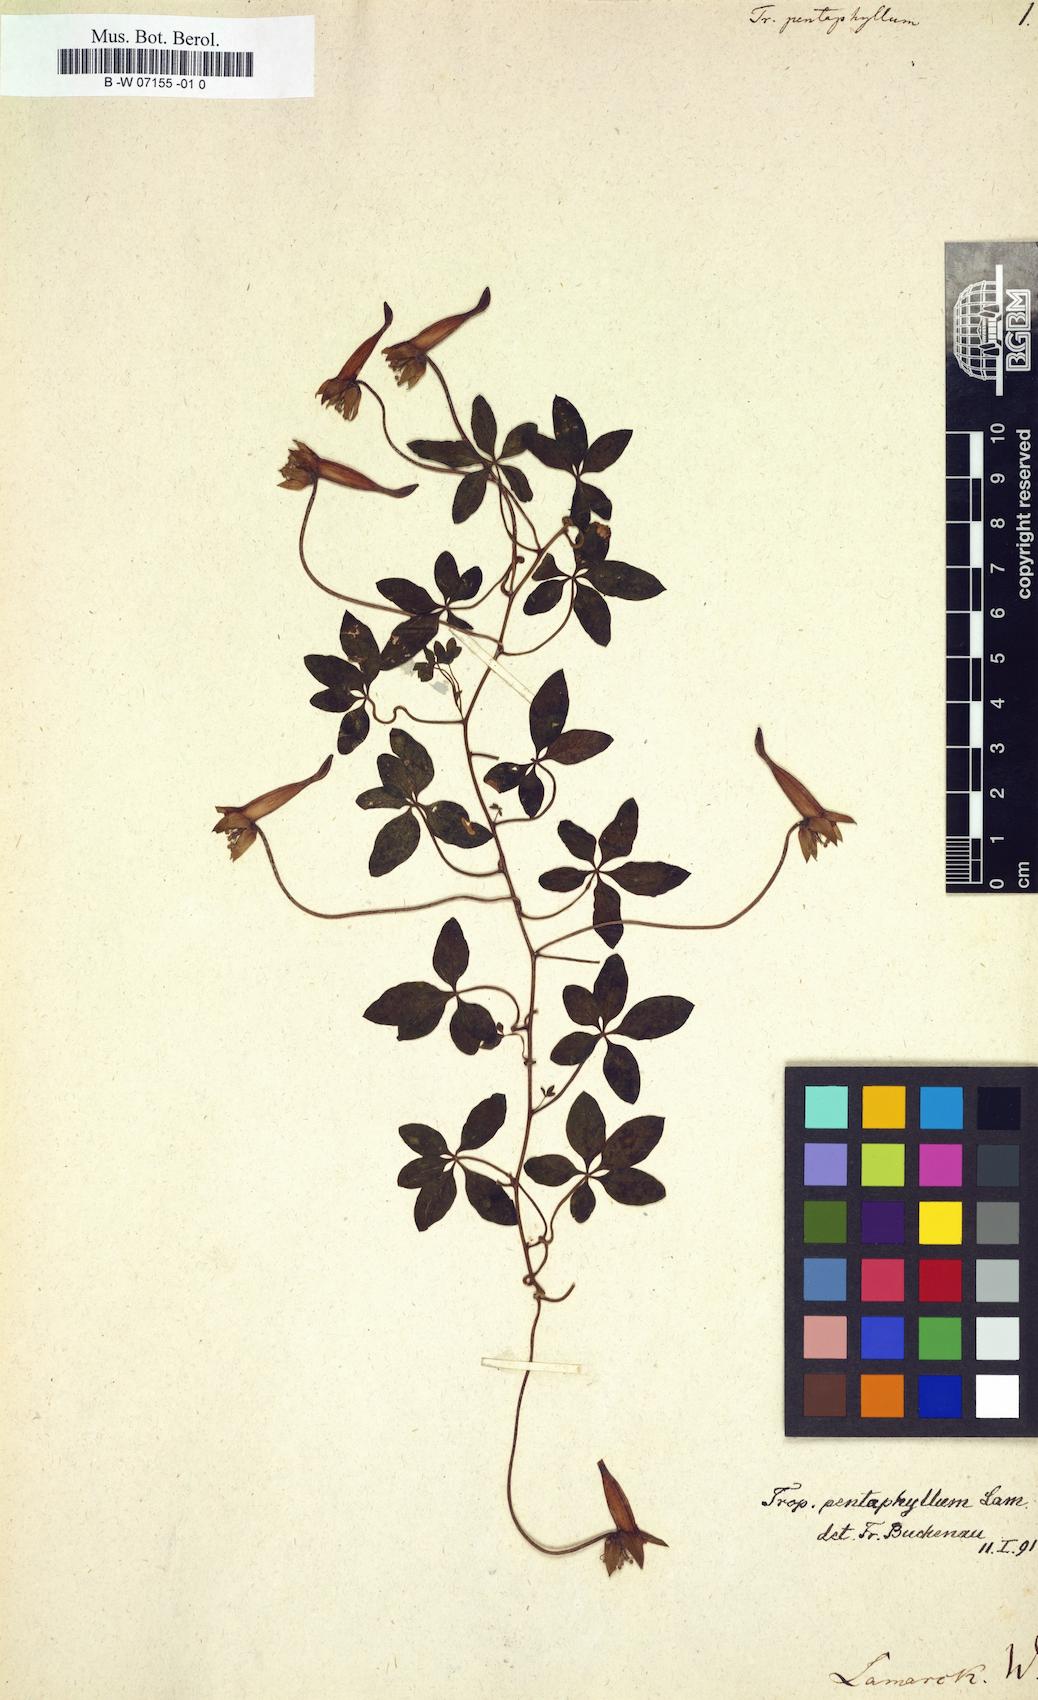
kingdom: Plantae
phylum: Tracheophyta
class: Magnoliopsida
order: Brassicales
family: Tropaeolaceae
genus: Tropaeolum
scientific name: Tropaeolum pentaphyllum
